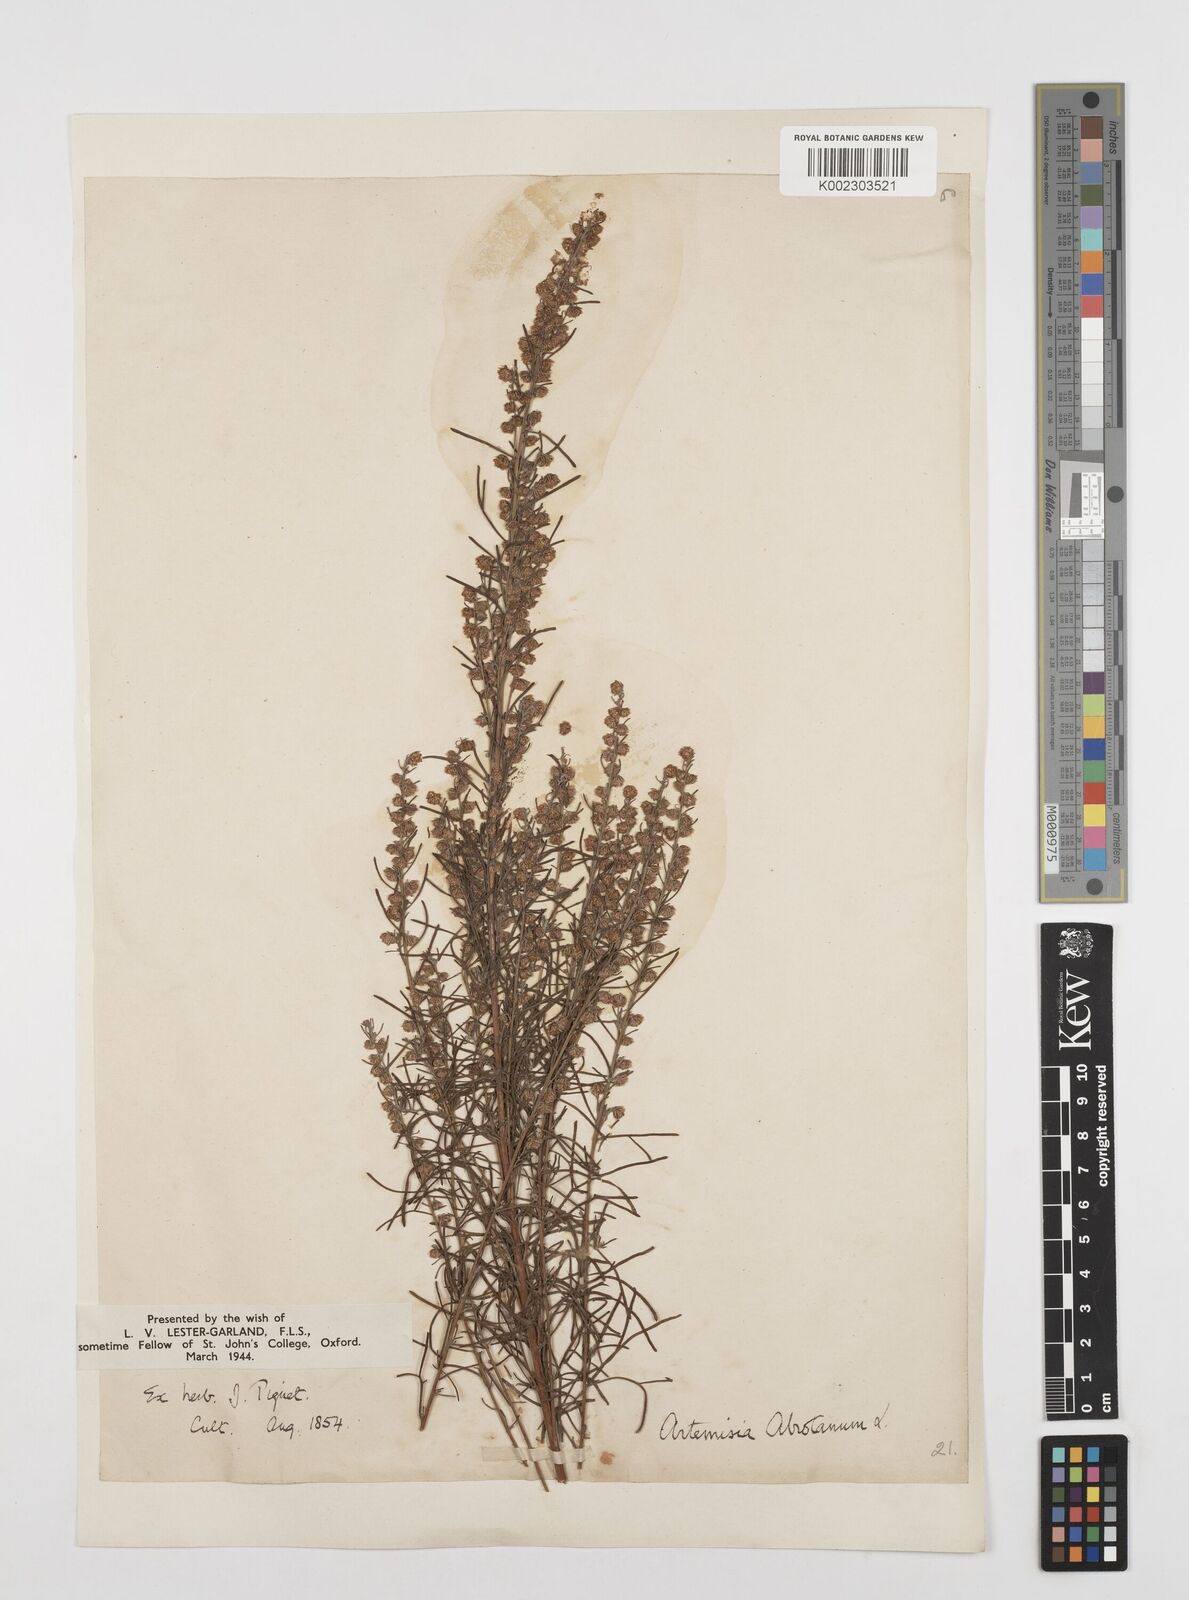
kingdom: Plantae
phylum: Tracheophyta
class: Magnoliopsida
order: Asterales
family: Asteraceae
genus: Artemisia
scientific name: Artemisia abrotanum
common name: Southernwood
